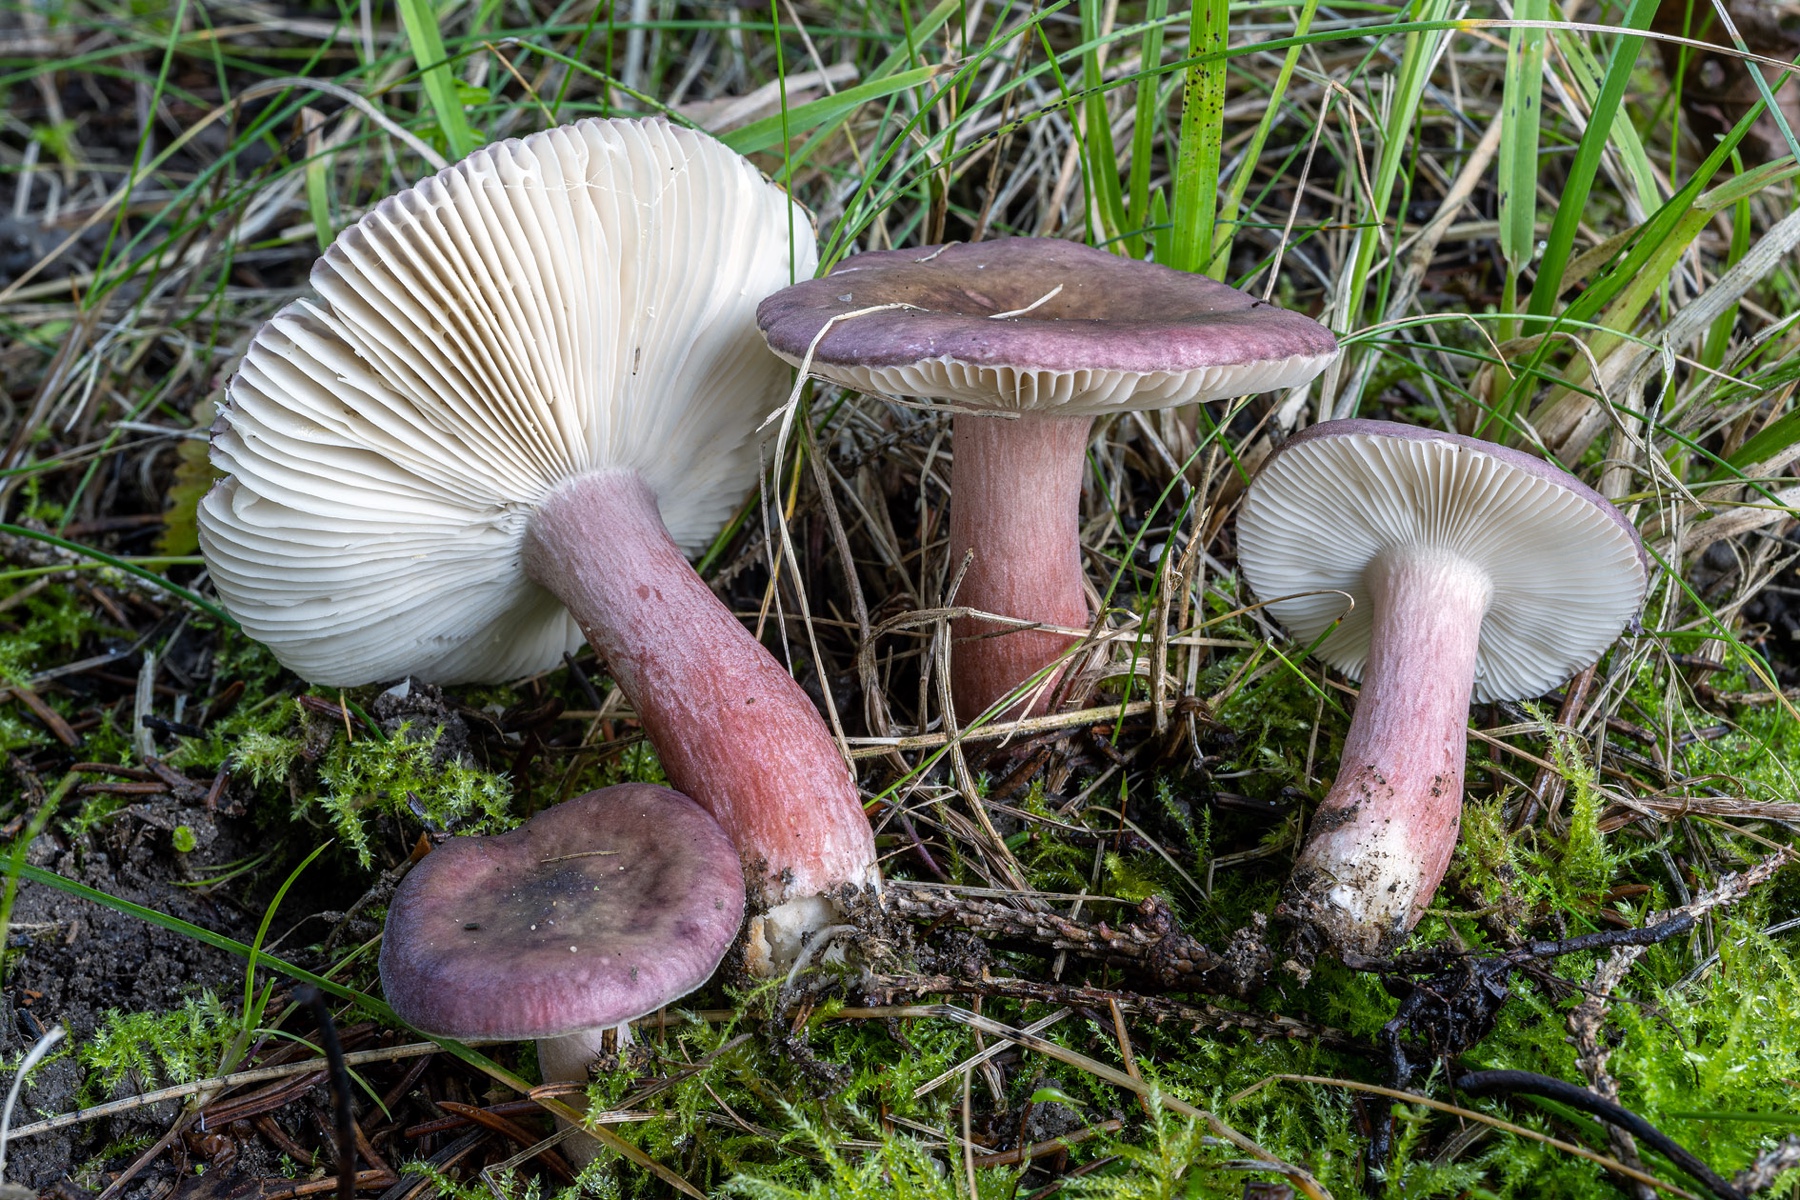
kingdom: Fungi
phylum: Basidiomycota
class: Agaricomycetes
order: Russulales
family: Russulaceae
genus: Russula
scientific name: Russula queletii
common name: Quélets skørhat
